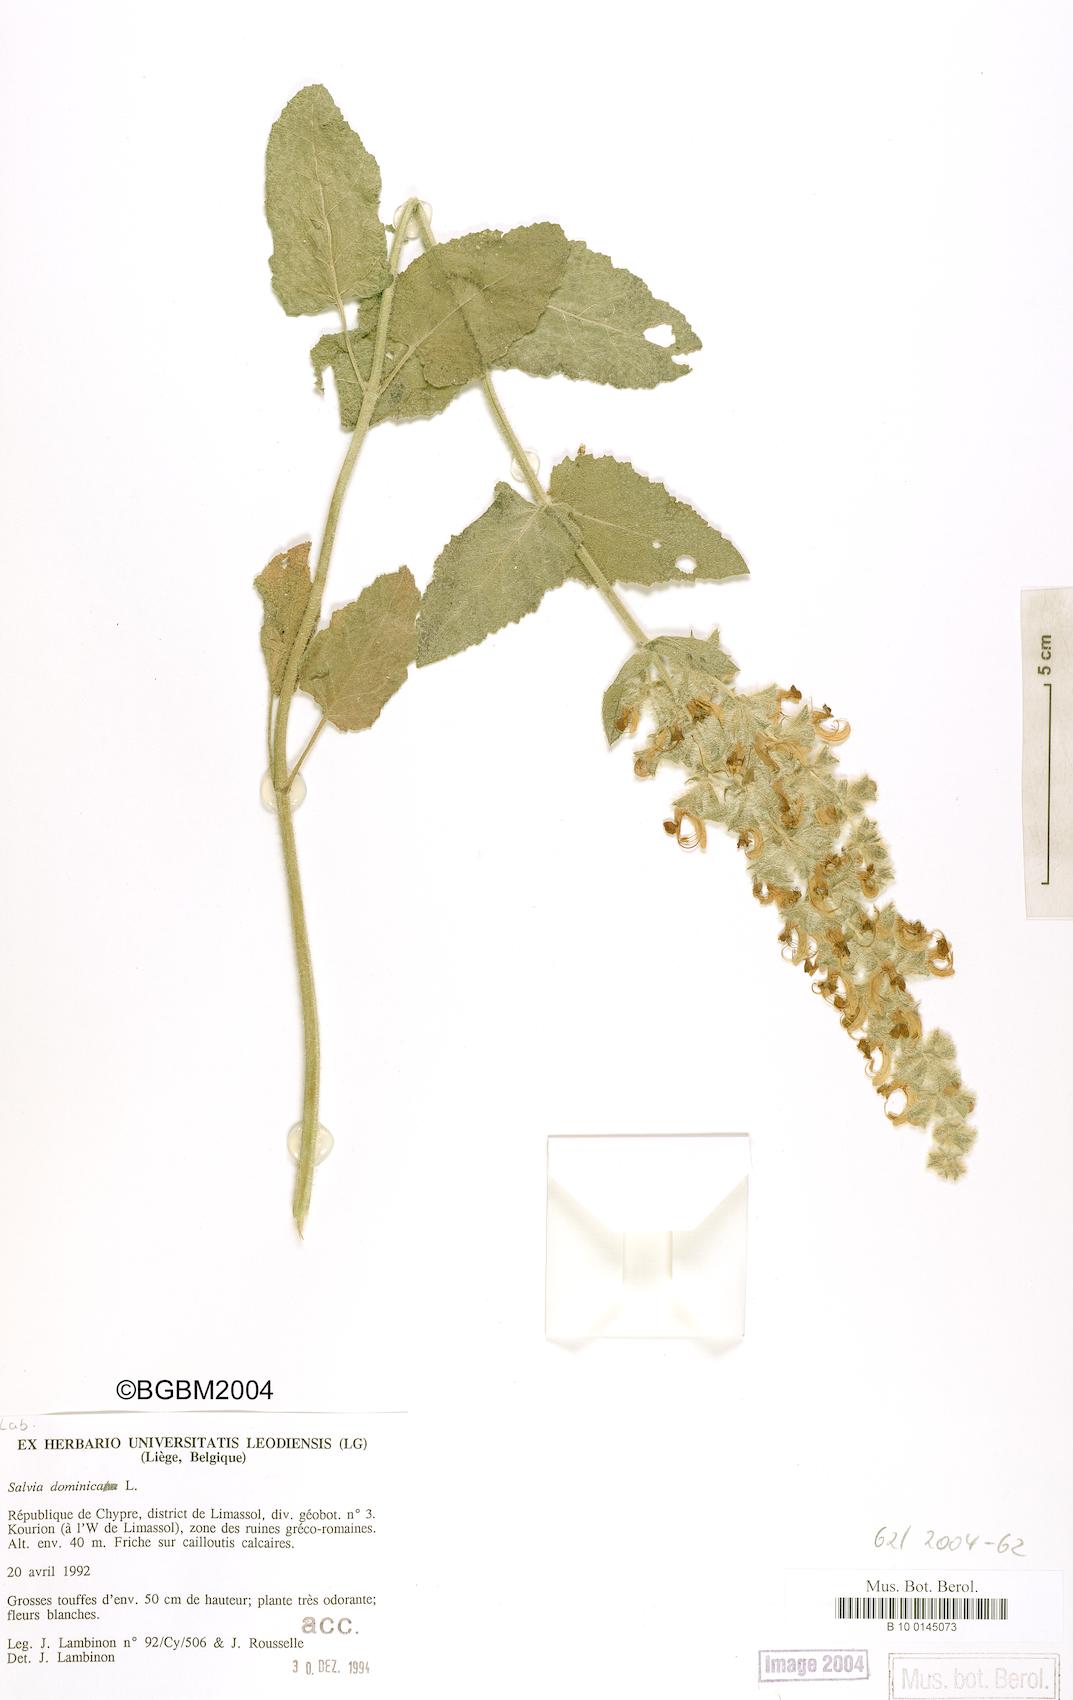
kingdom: Plantae
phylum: Tracheophyta
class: Magnoliopsida
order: Lamiales
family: Lamiaceae
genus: Salvia
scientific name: Salvia dominica
